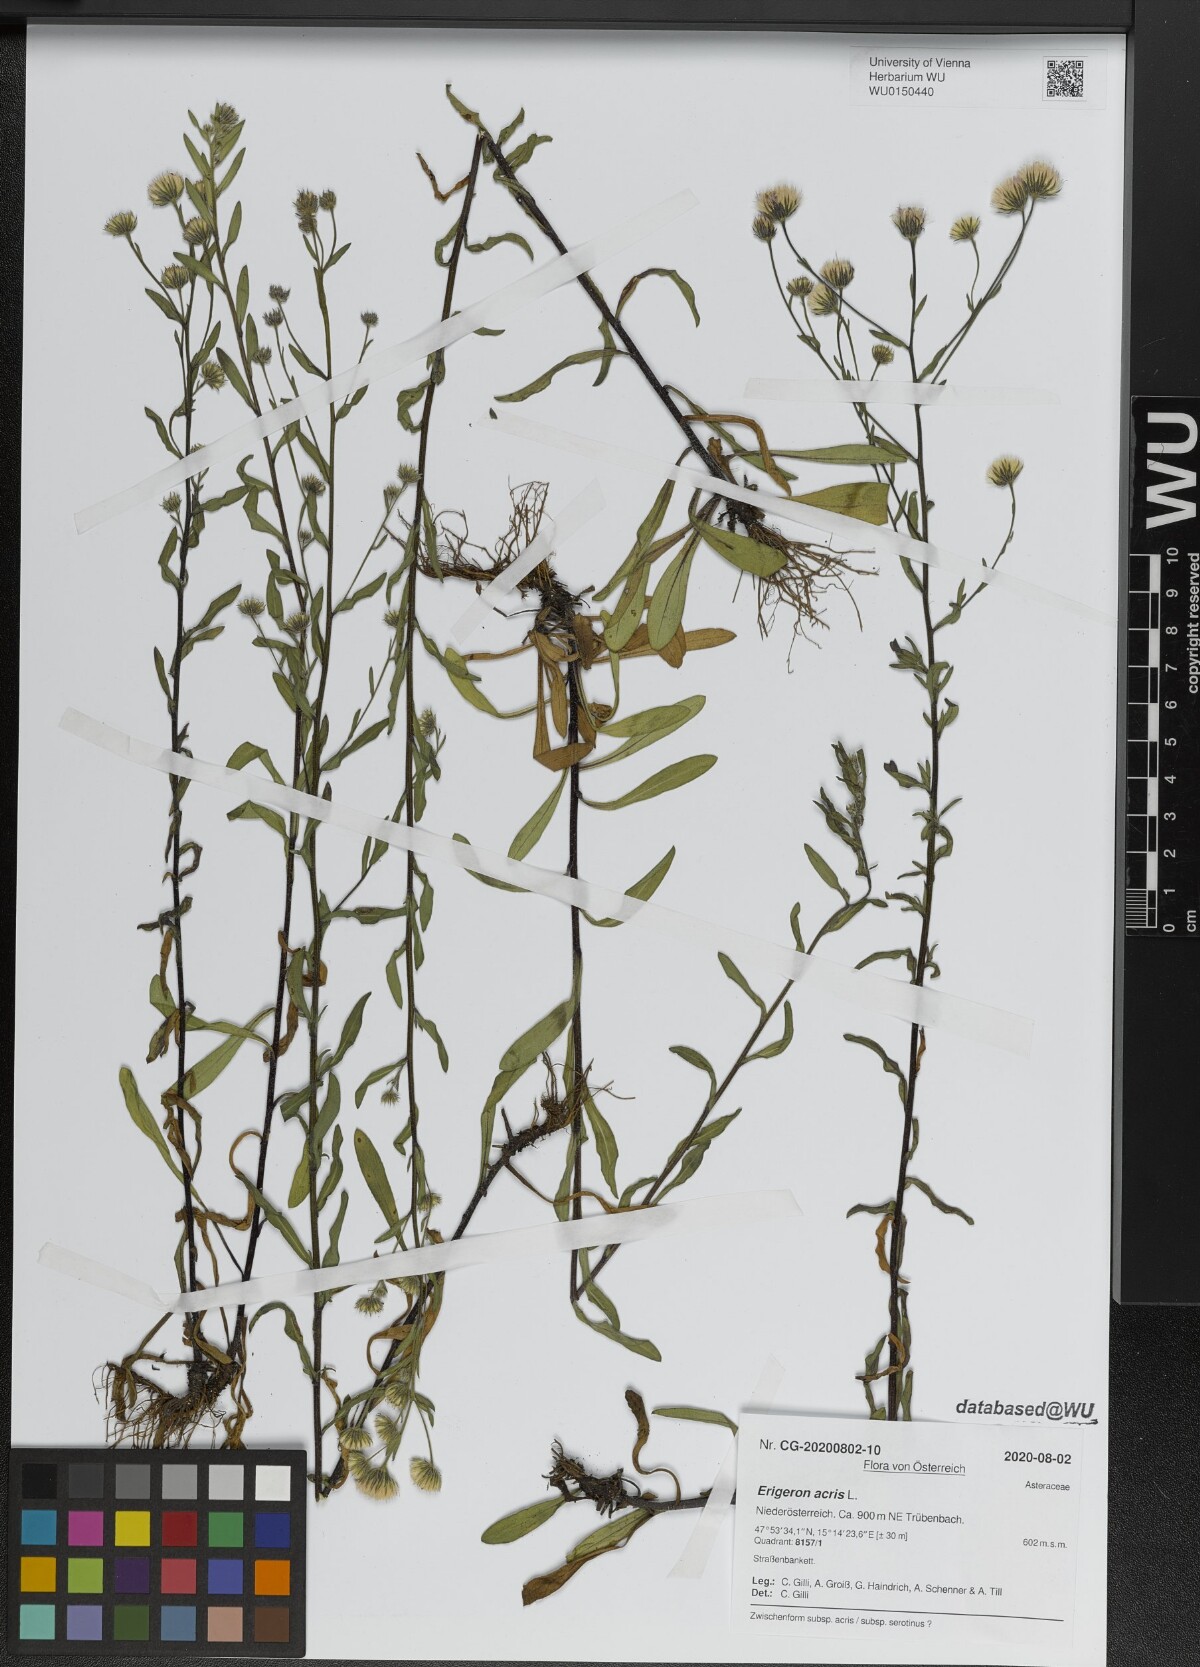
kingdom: Plantae
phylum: Tracheophyta
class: Magnoliopsida
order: Asterales
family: Asteraceae
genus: Erigeron
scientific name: Erigeron acris
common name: Blue fleabane
